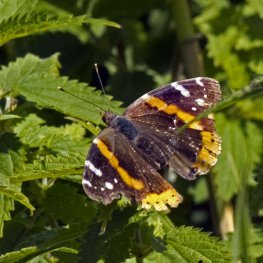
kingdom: Animalia
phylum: Arthropoda
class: Insecta
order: Lepidoptera
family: Nymphalidae
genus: Vanessa
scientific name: Vanessa atalanta
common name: Red Admiral
